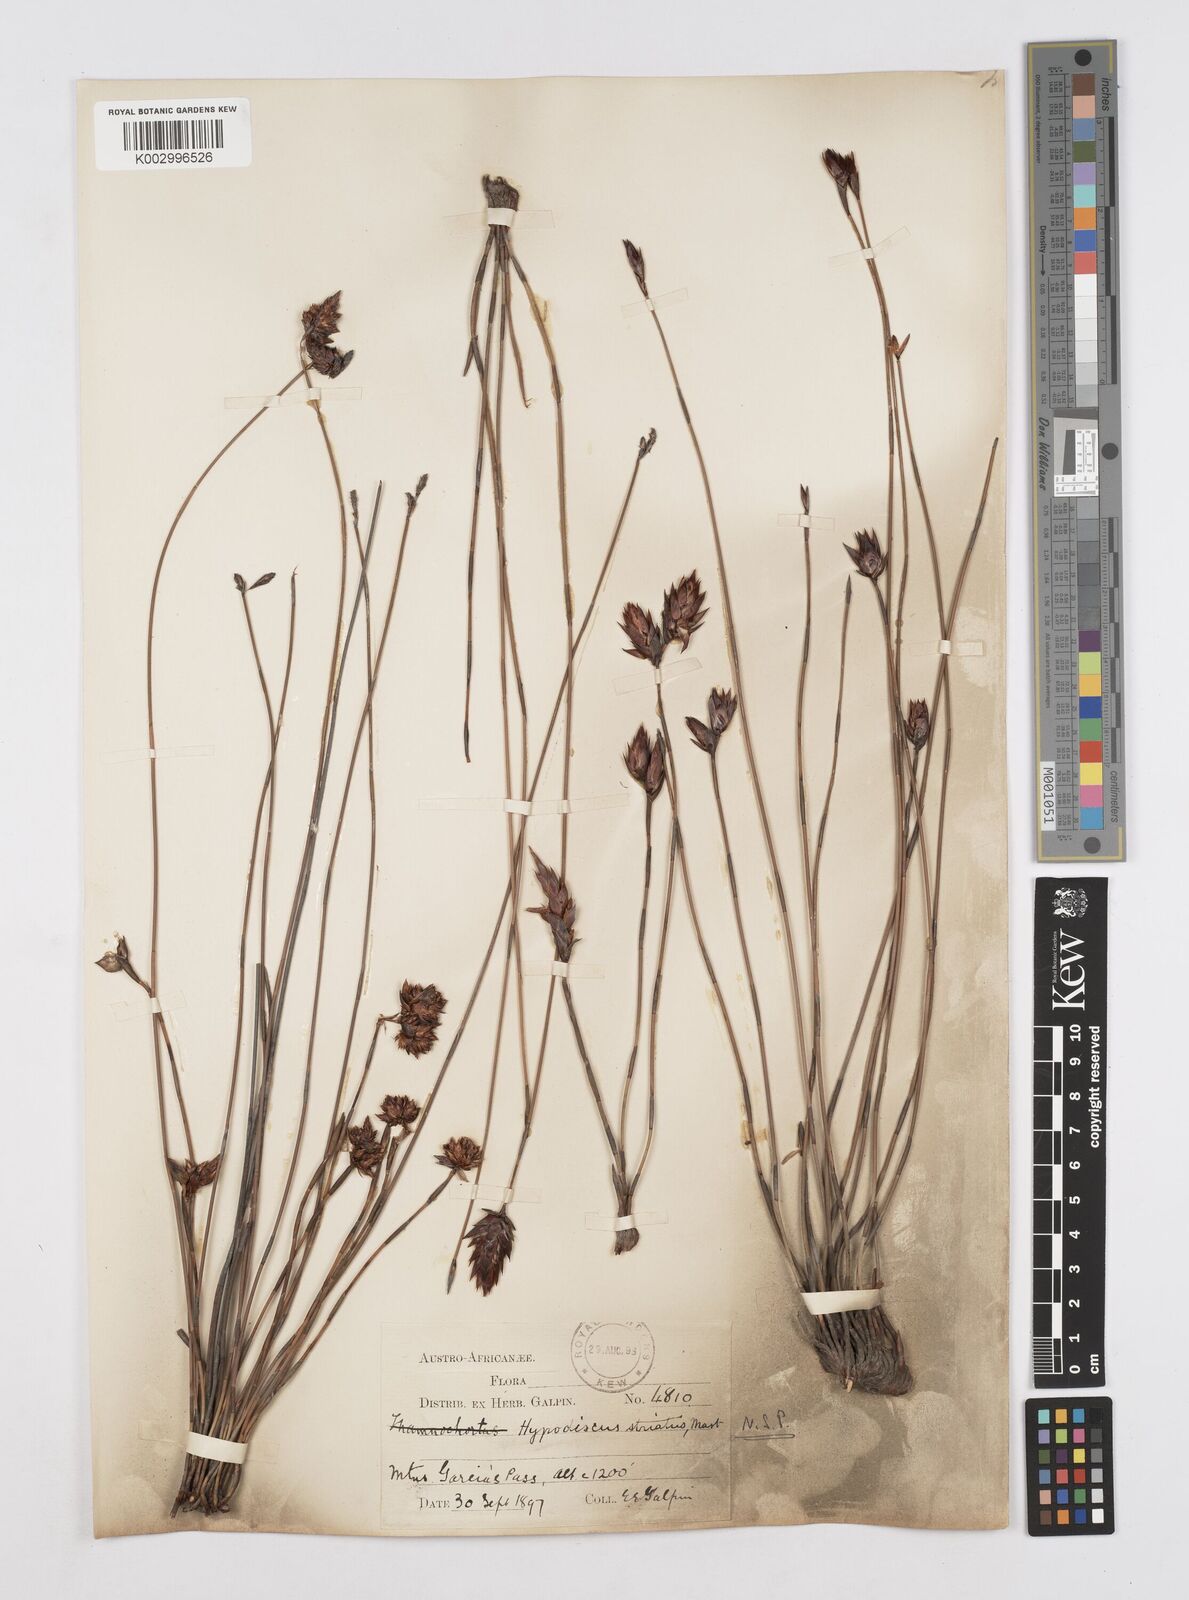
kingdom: Plantae
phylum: Tracheophyta
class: Liliopsida
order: Poales
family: Restionaceae
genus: Hypodiscus
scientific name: Hypodiscus striatus
